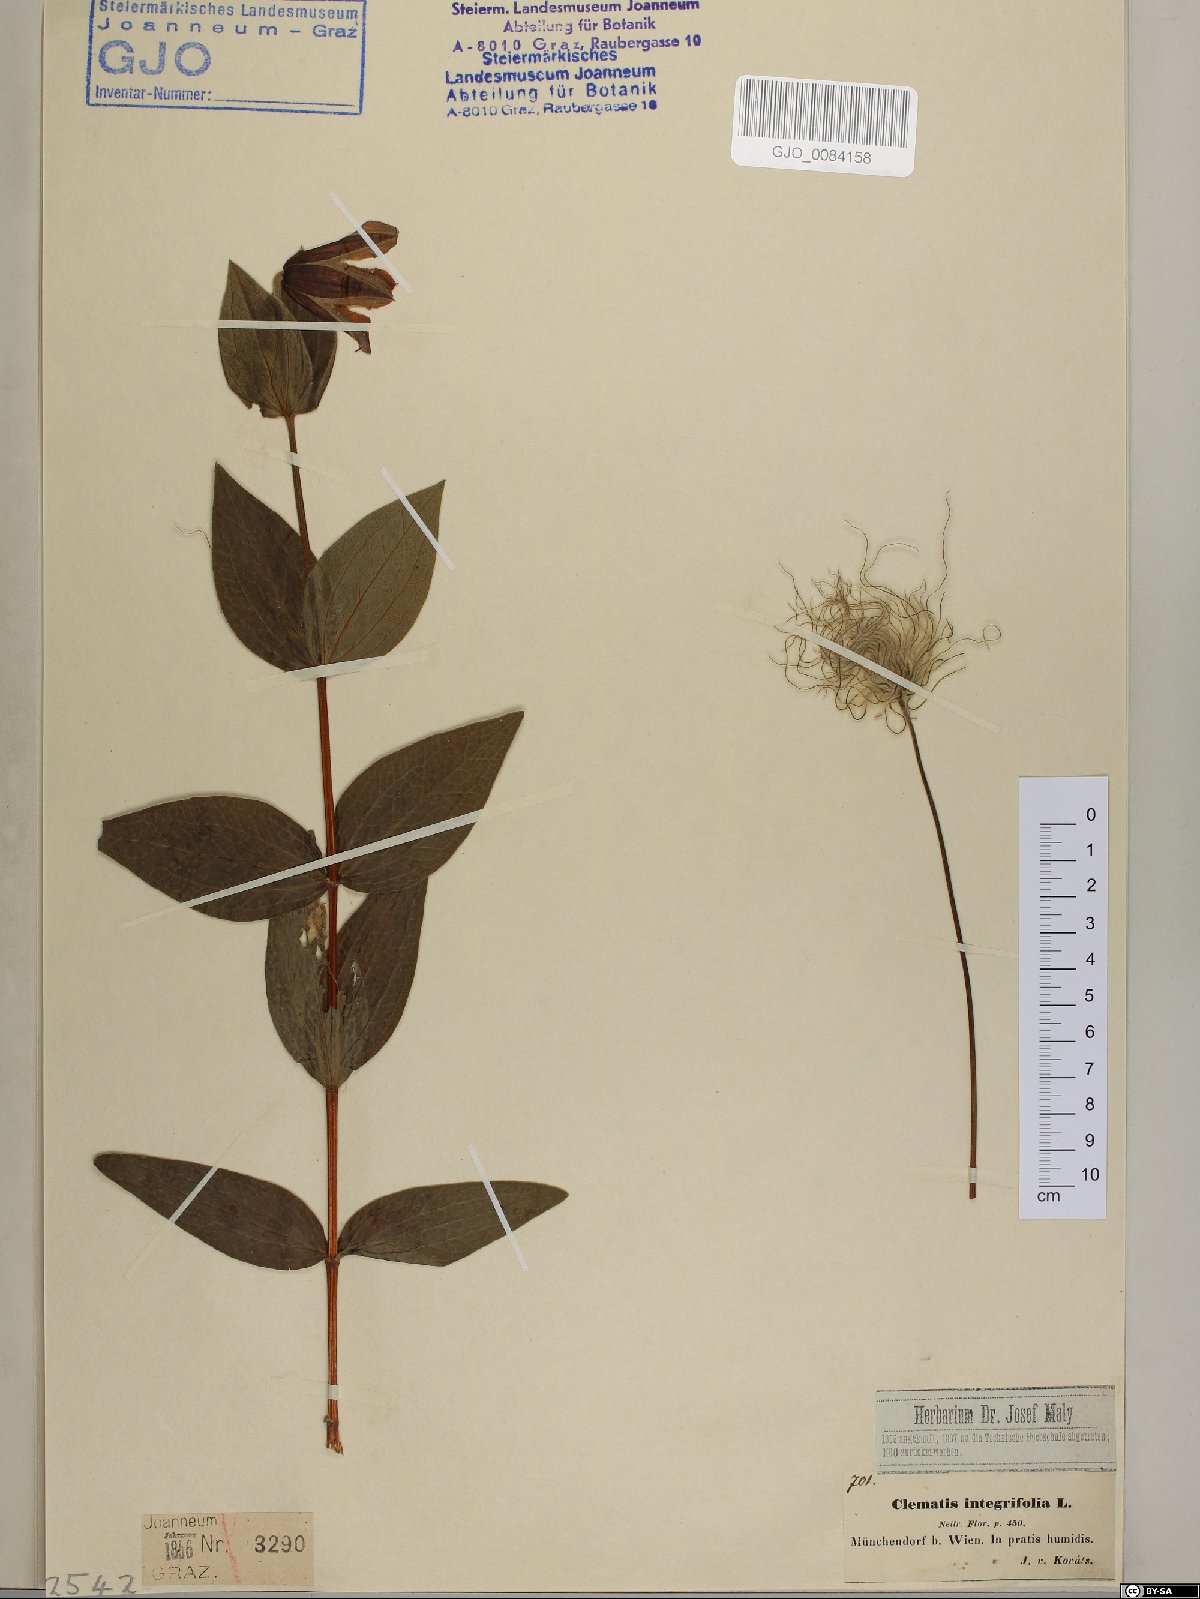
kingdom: Plantae
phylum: Tracheophyta
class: Magnoliopsida
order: Ranunculales
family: Ranunculaceae
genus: Clematis
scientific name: Clematis integrifolia
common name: Solitary clematis
